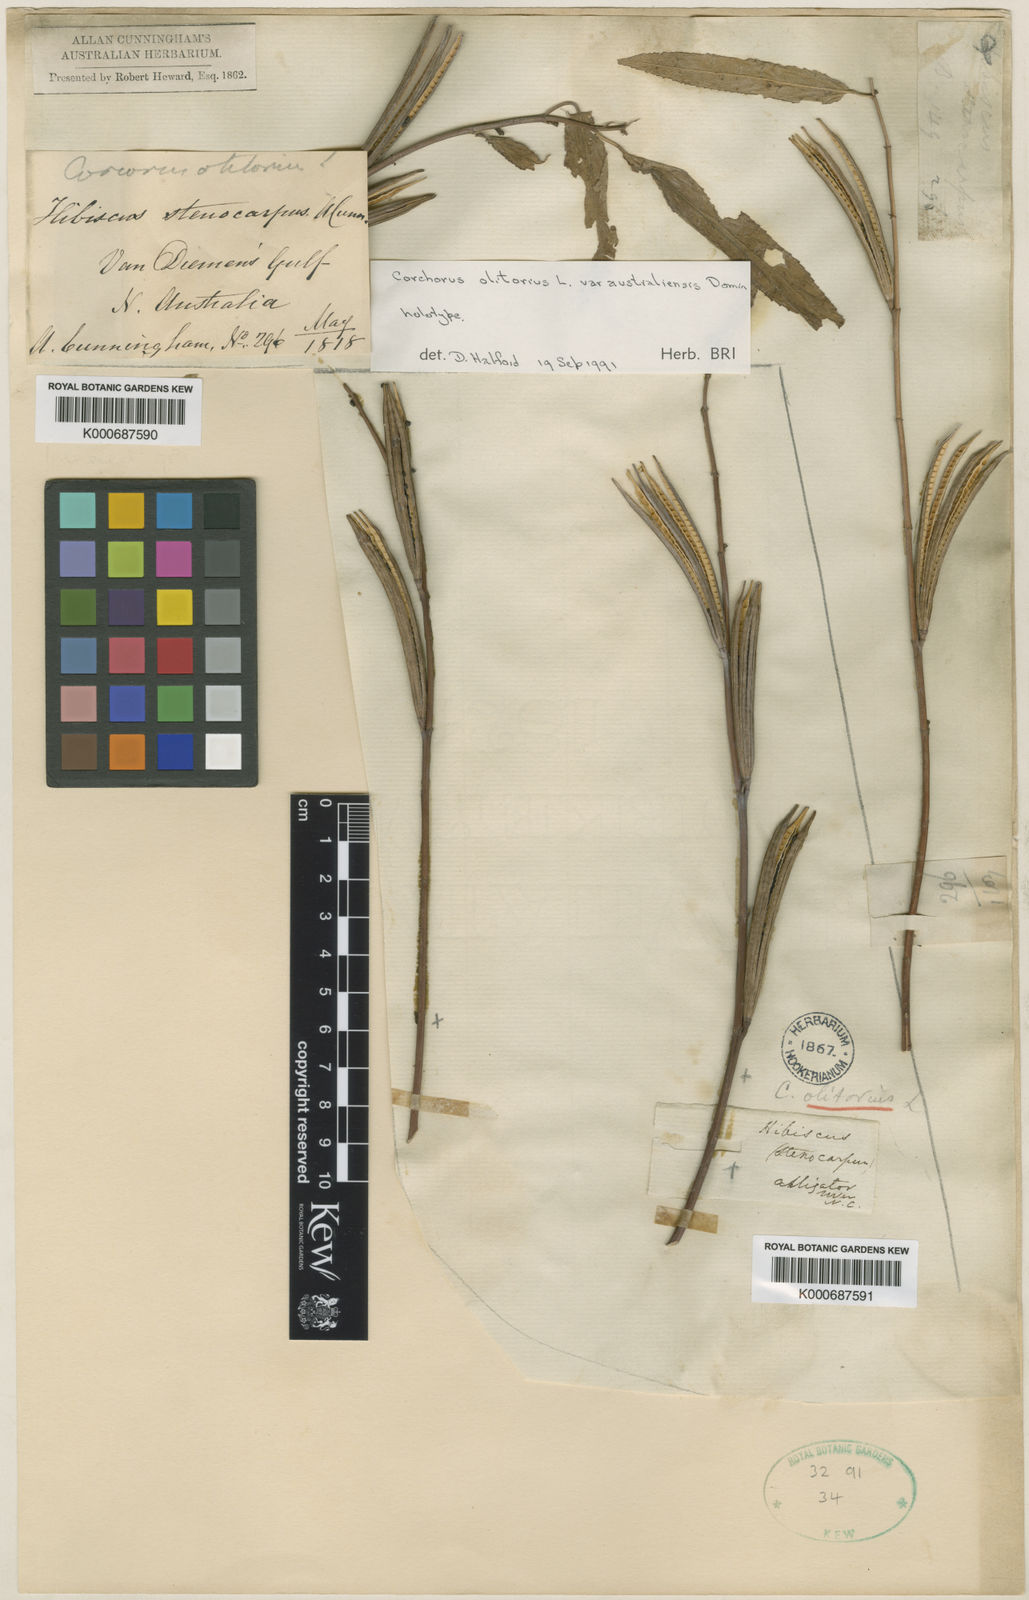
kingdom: Plantae
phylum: Tracheophyta
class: Magnoliopsida
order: Malvales
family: Malvaceae
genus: Corchorus
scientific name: Corchorus tridens
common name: Wild jute
